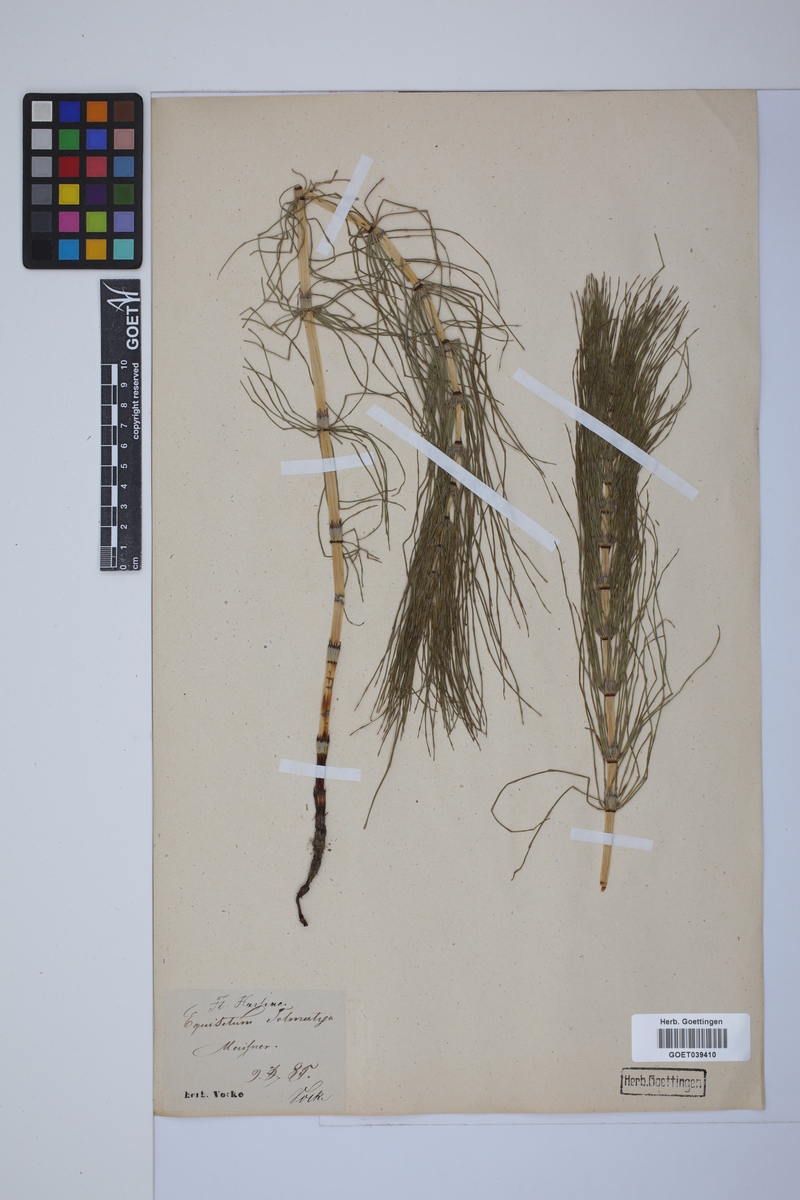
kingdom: Plantae
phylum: Tracheophyta
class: Polypodiopsida
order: Equisetales
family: Equisetaceae
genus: Equisetum
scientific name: Equisetum telmateia
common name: Great horsetail
